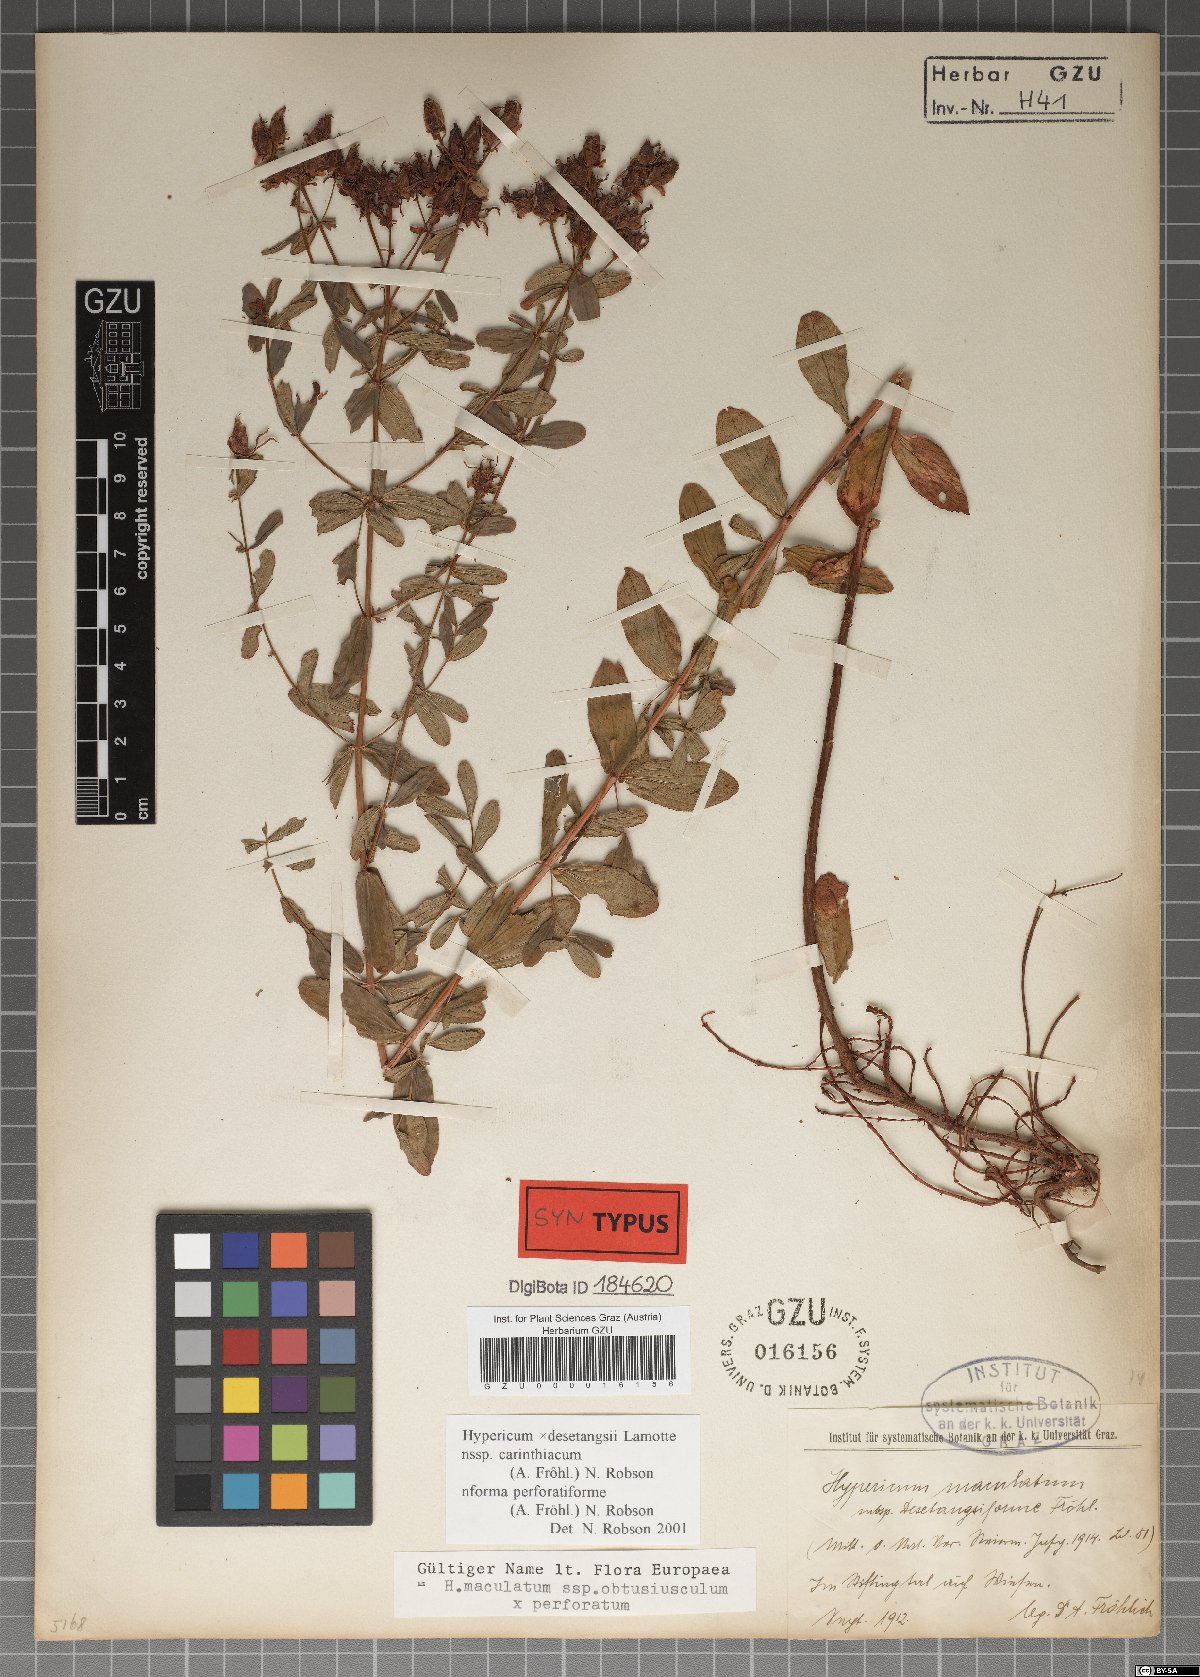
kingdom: Plantae
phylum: Tracheophyta
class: Magnoliopsida
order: Malpighiales
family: Hypericaceae
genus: Hypericum
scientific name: Hypericum carinthiacum
